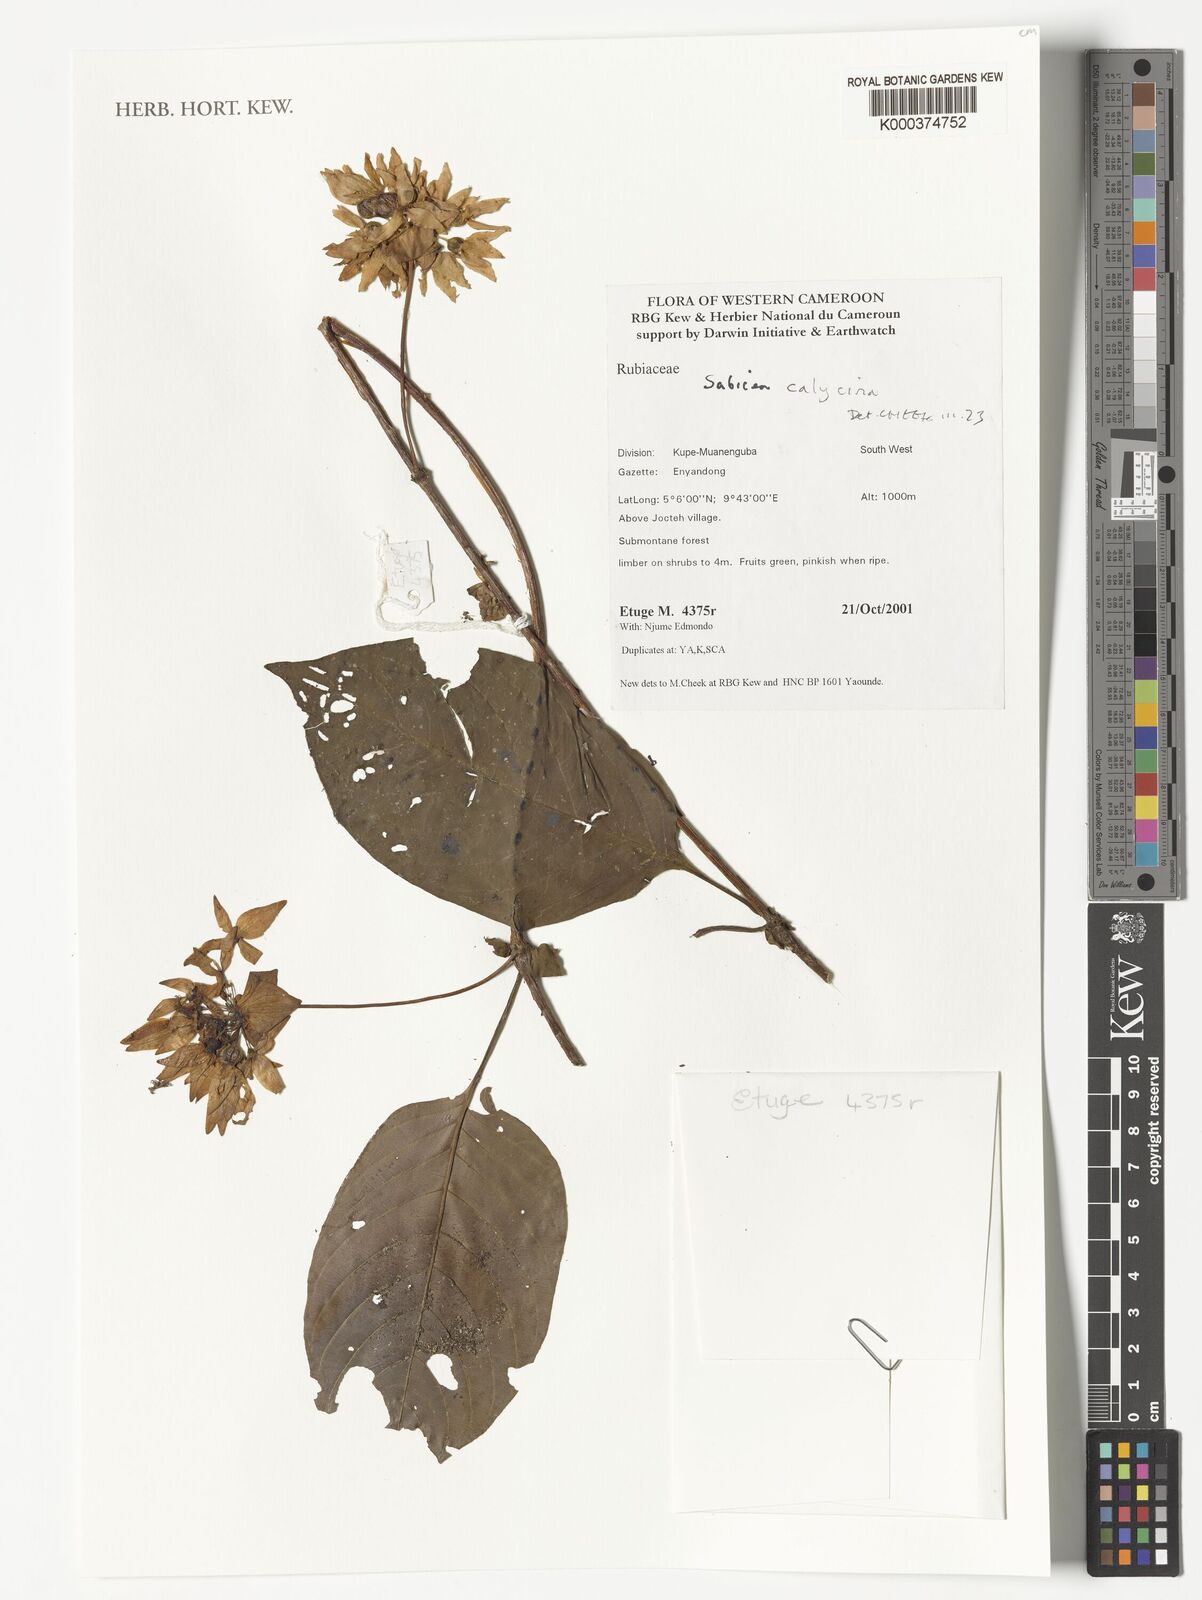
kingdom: Plantae
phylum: Tracheophyta
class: Magnoliopsida
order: Gentianales
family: Rubiaceae
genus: Sabicea
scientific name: Sabicea calycina
